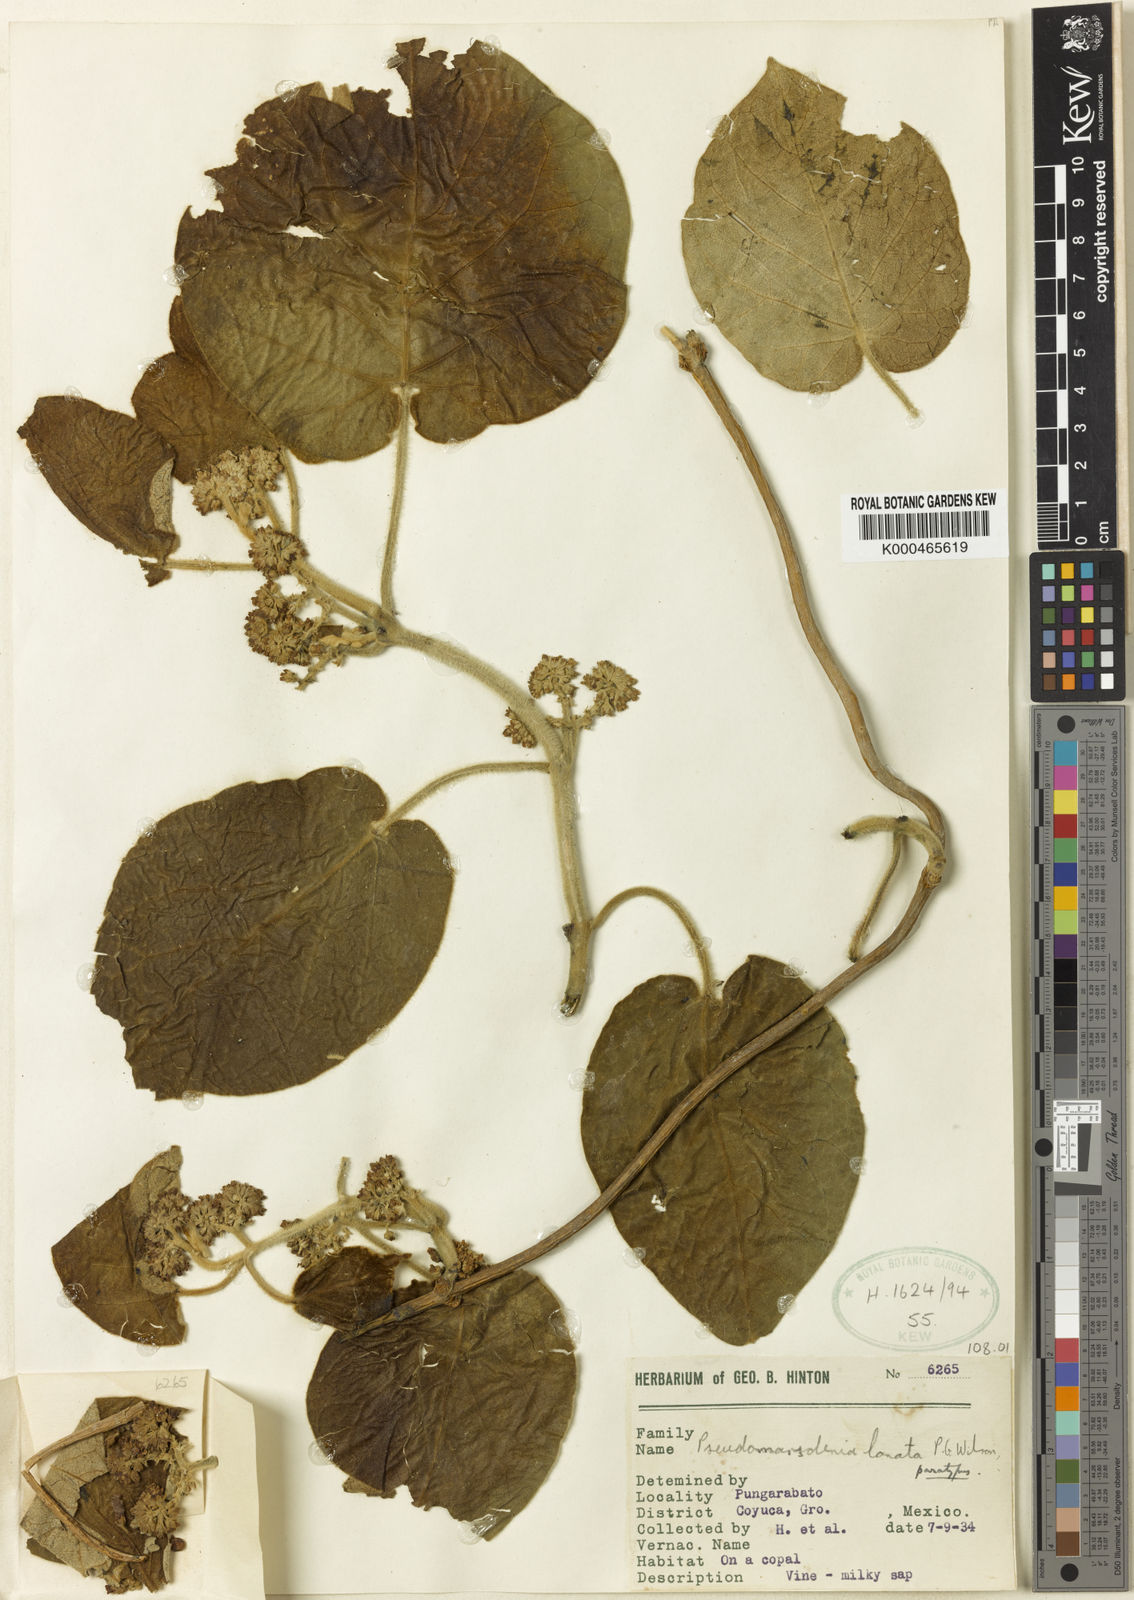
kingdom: Plantae
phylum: Tracheophyta
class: Magnoliopsida
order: Gentianales
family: Apocynaceae
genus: Ruehssia
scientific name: Ruehssia lanata
